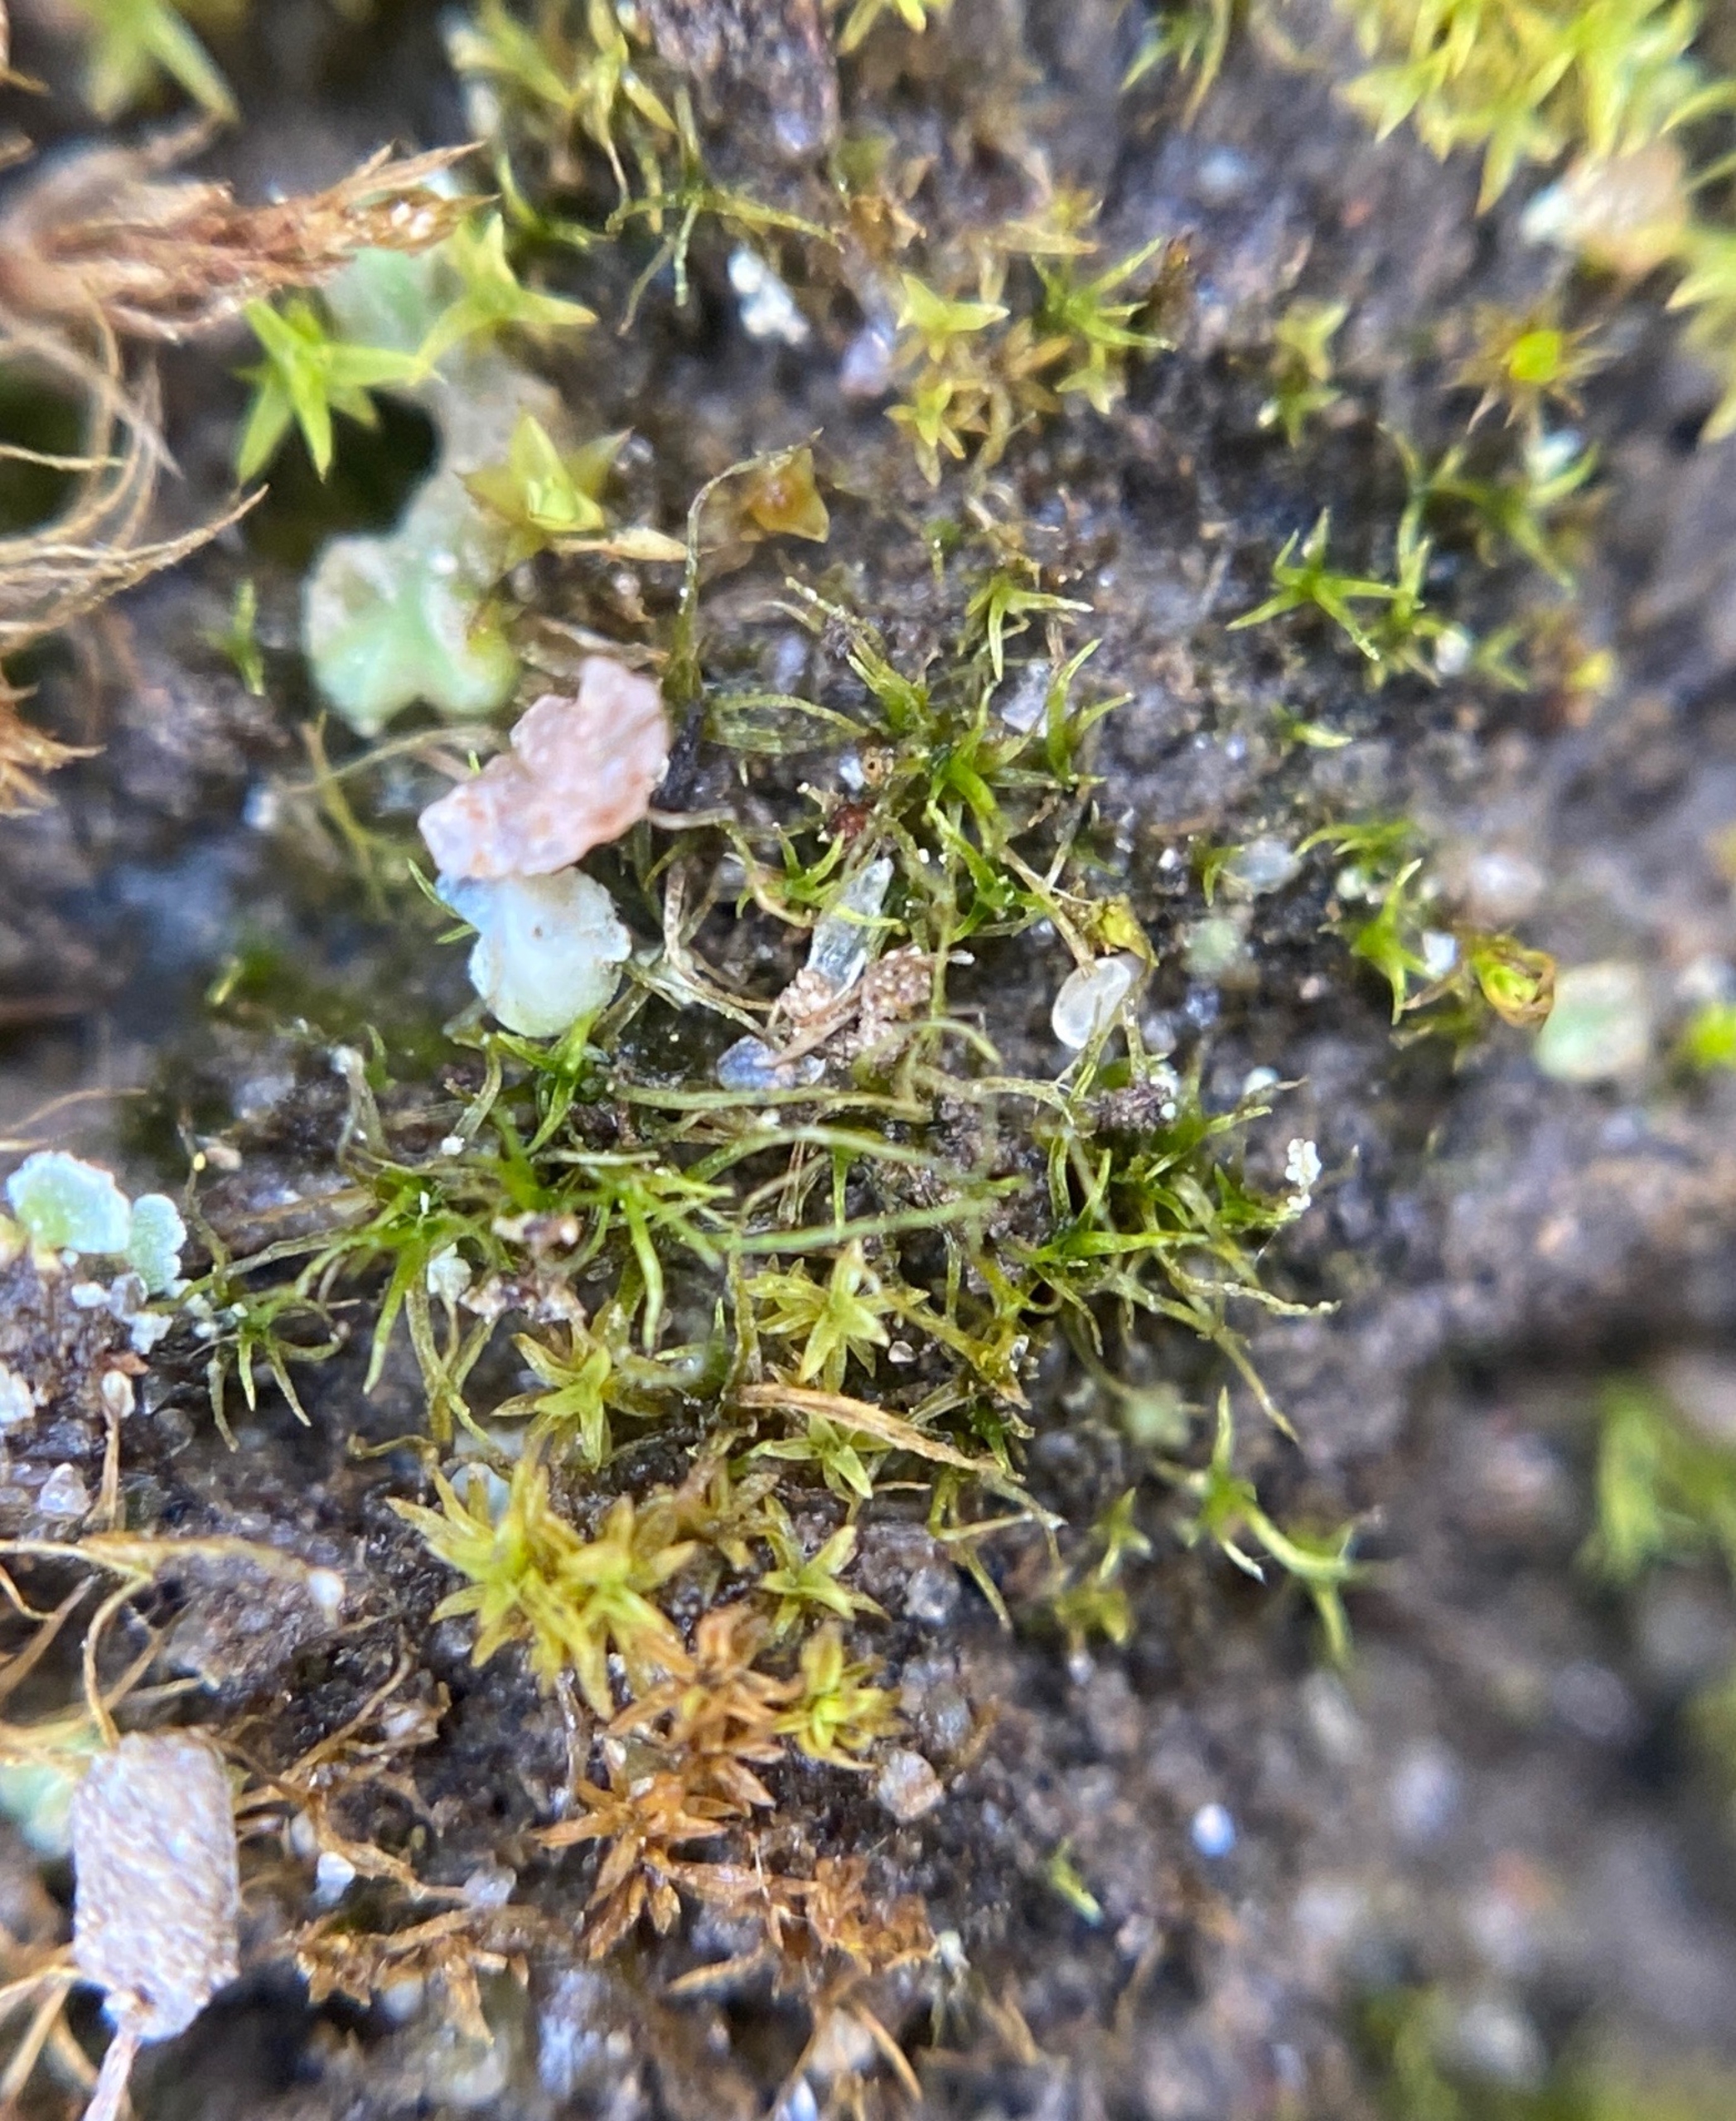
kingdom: Plantae
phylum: Bryophyta
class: Bryopsida
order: Pottiales
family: Pottiaceae
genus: Barbula
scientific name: Barbula unguiculata
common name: Almindelig skægtand
